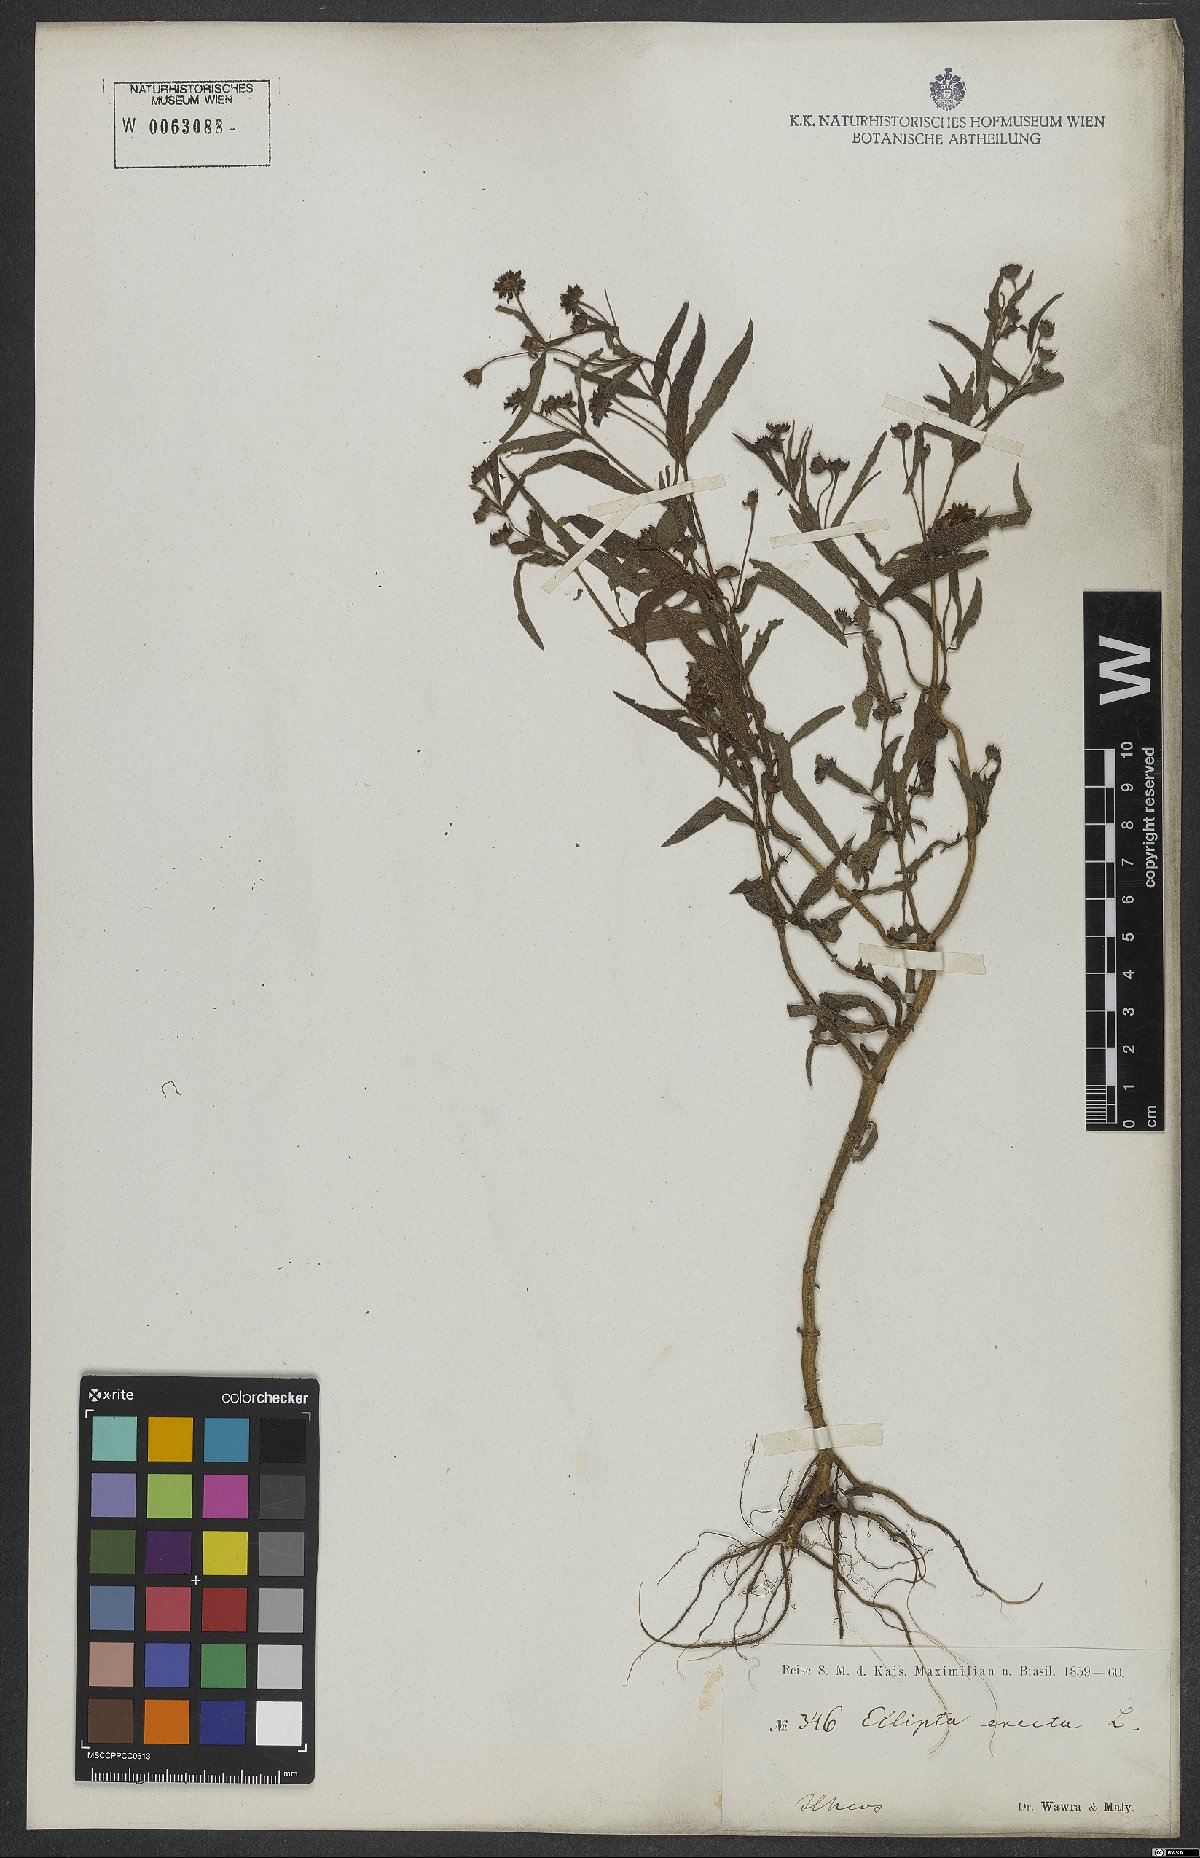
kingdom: Plantae
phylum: Tracheophyta
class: Magnoliopsida
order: Asterales
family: Asteraceae
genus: Eclipta
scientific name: Eclipta alba
